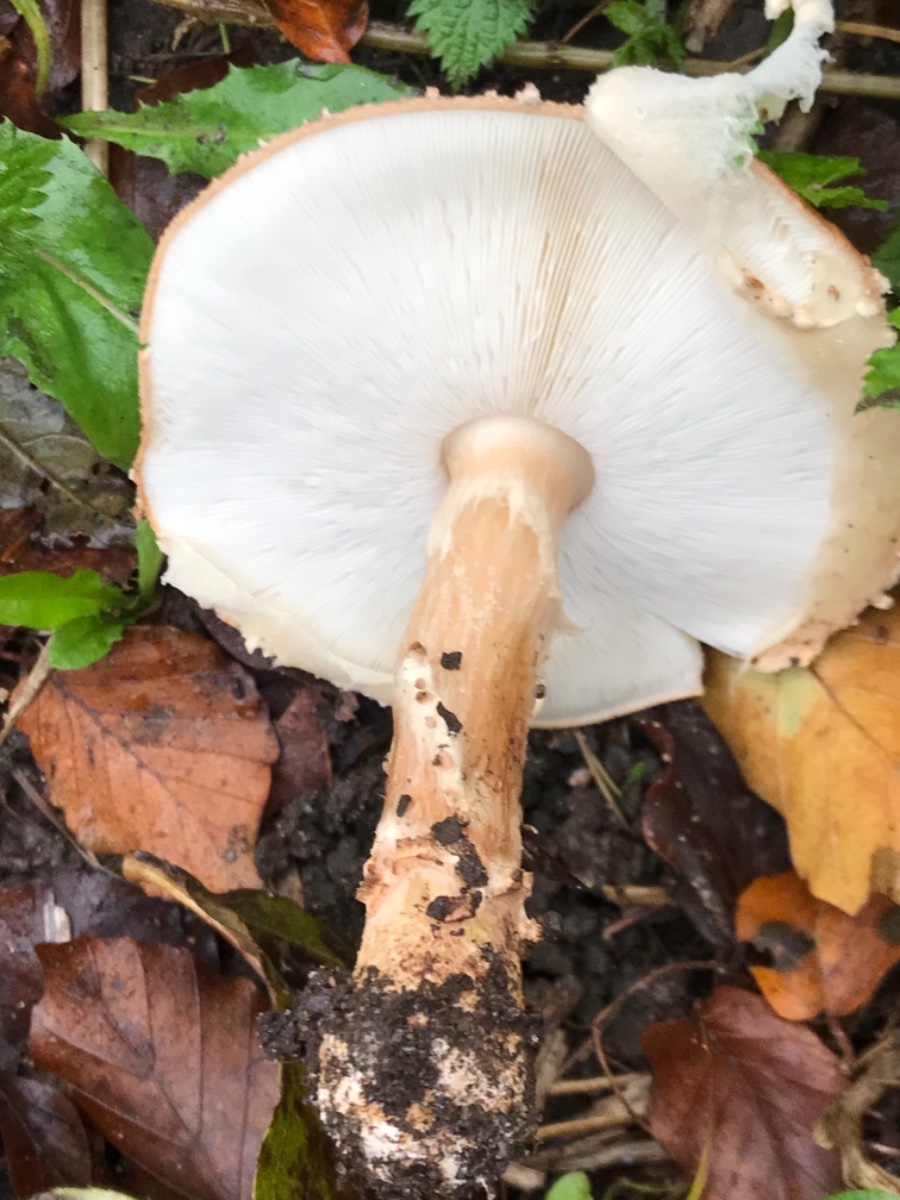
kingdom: Fungi
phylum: Basidiomycota
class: Agaricomycetes
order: Agaricales
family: Agaricaceae
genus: Echinoderma
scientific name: Echinoderma asperum
